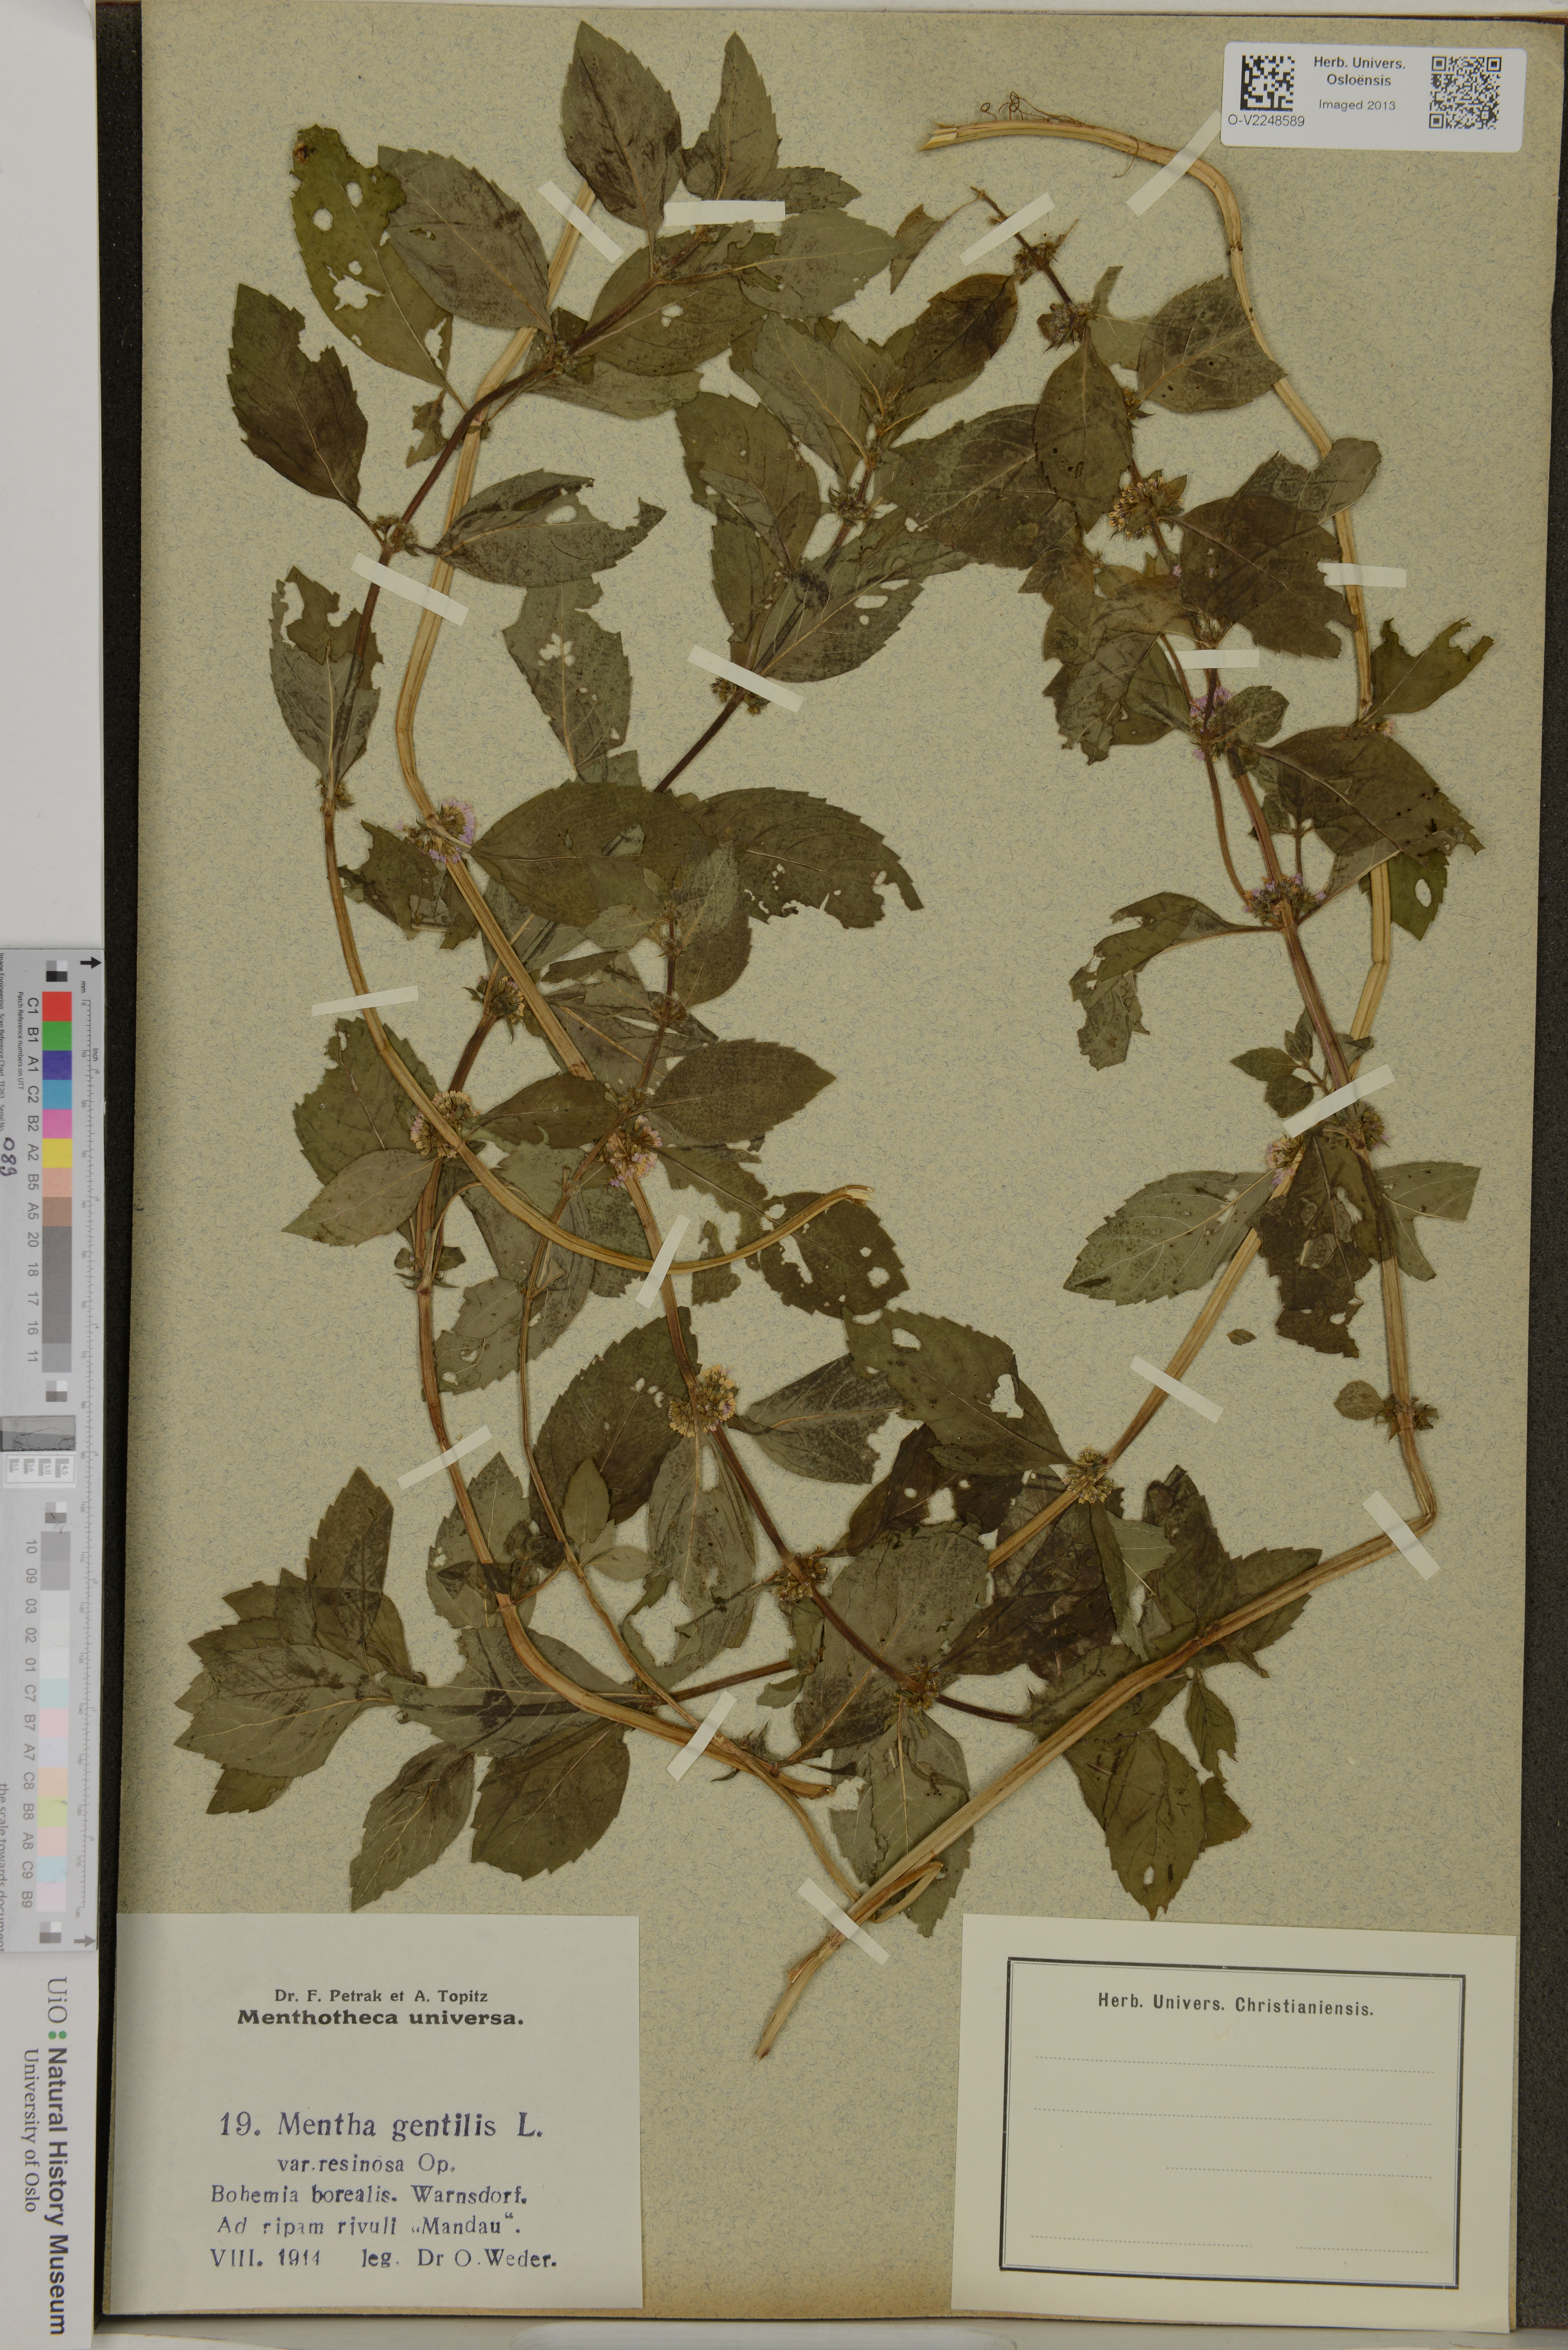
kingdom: Plantae
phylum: Tracheophyta
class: Magnoliopsida
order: Lamiales
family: Lamiaceae
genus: Mentha
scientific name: Mentha arvensis
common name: Corn mint
